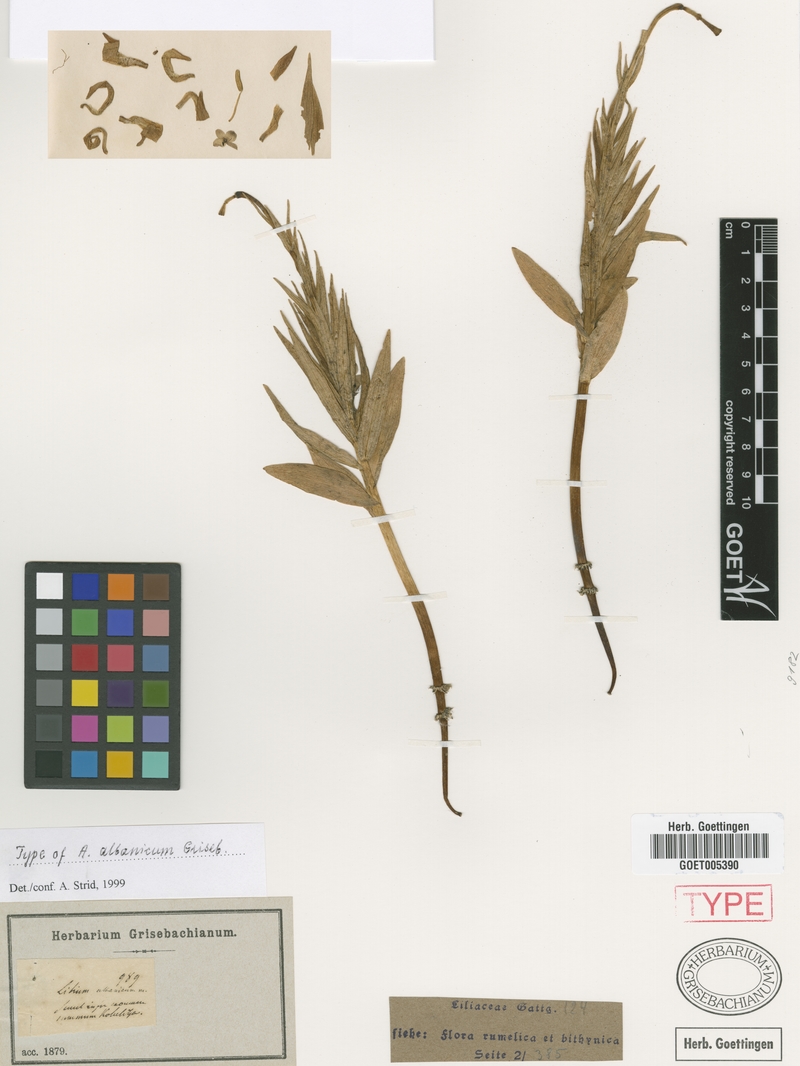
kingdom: Plantae
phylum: Tracheophyta
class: Liliopsida
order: Liliales
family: Liliaceae
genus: Lilium
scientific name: Lilium albanicum
